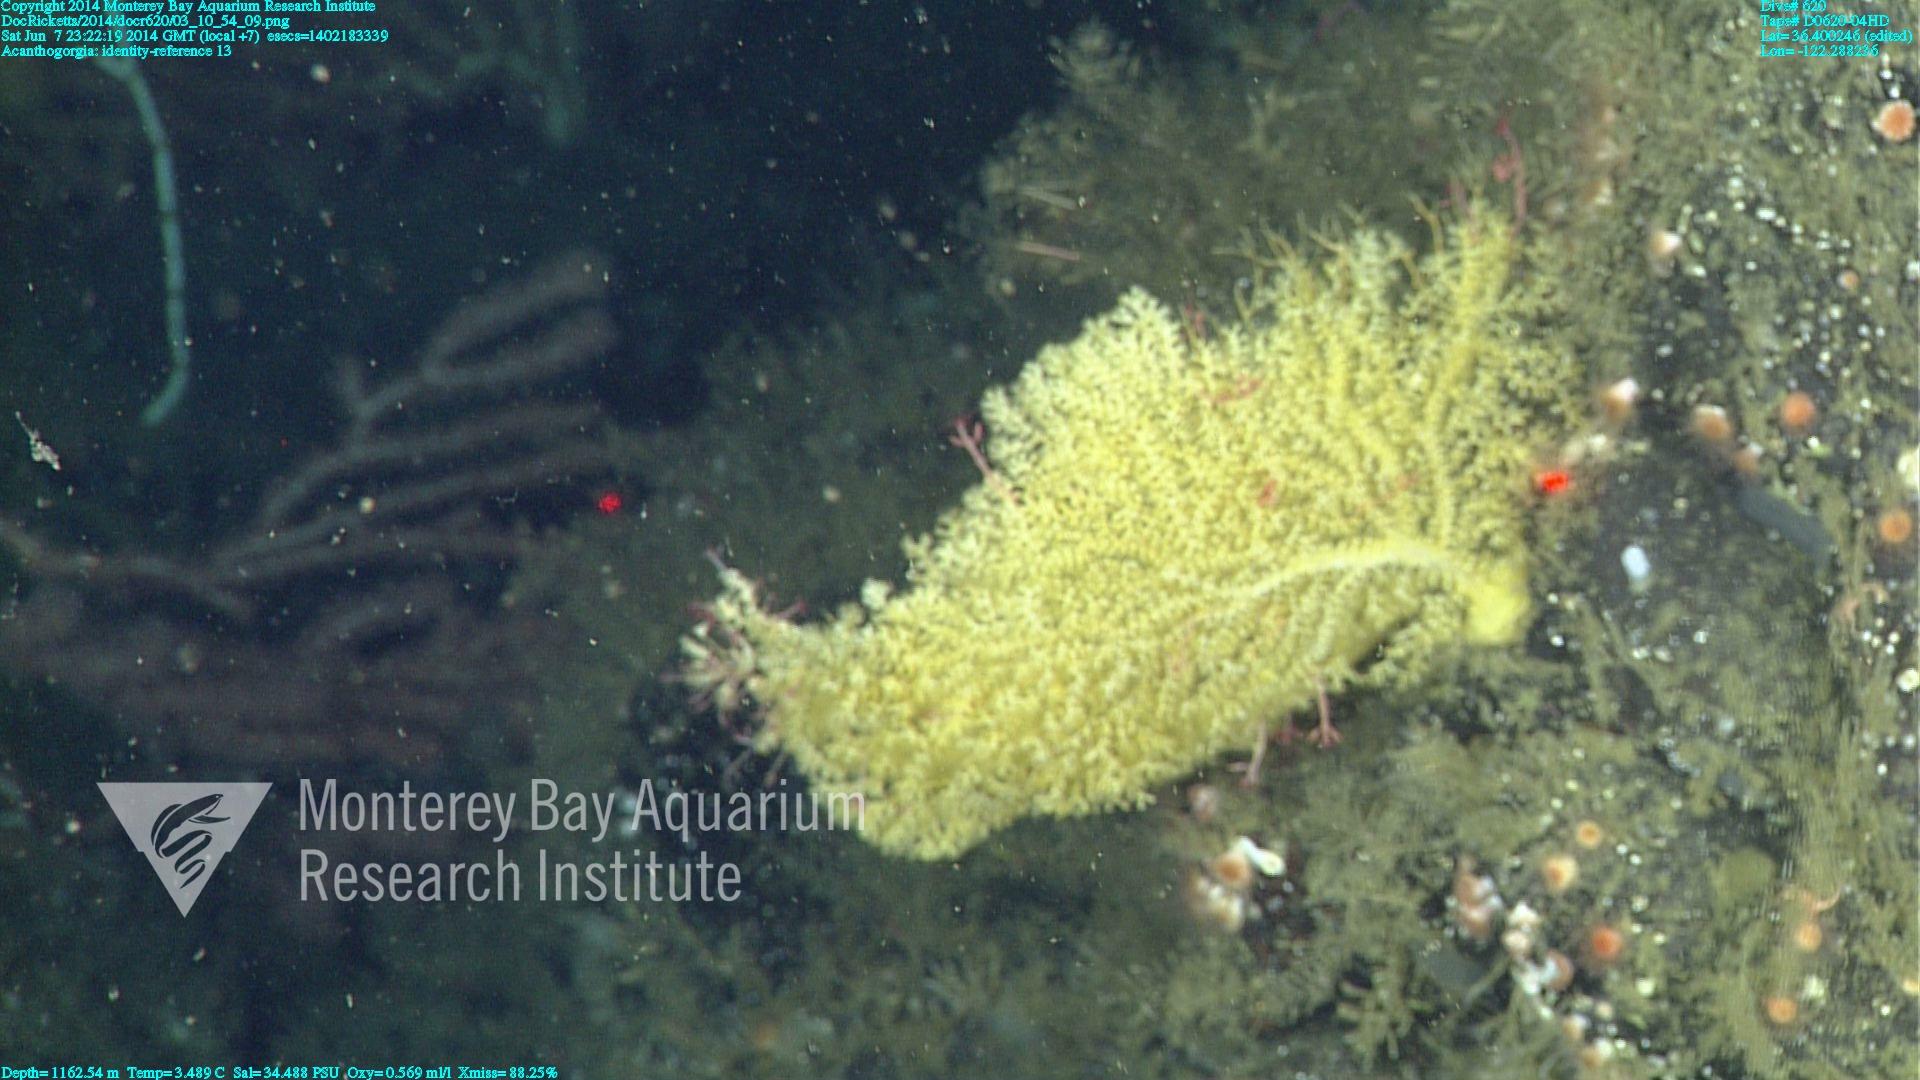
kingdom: Animalia
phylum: Cnidaria
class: Anthozoa
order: Malacalcyonacea
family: Paramuriceidae
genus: Acanthogorgia
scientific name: Acanthogorgia
